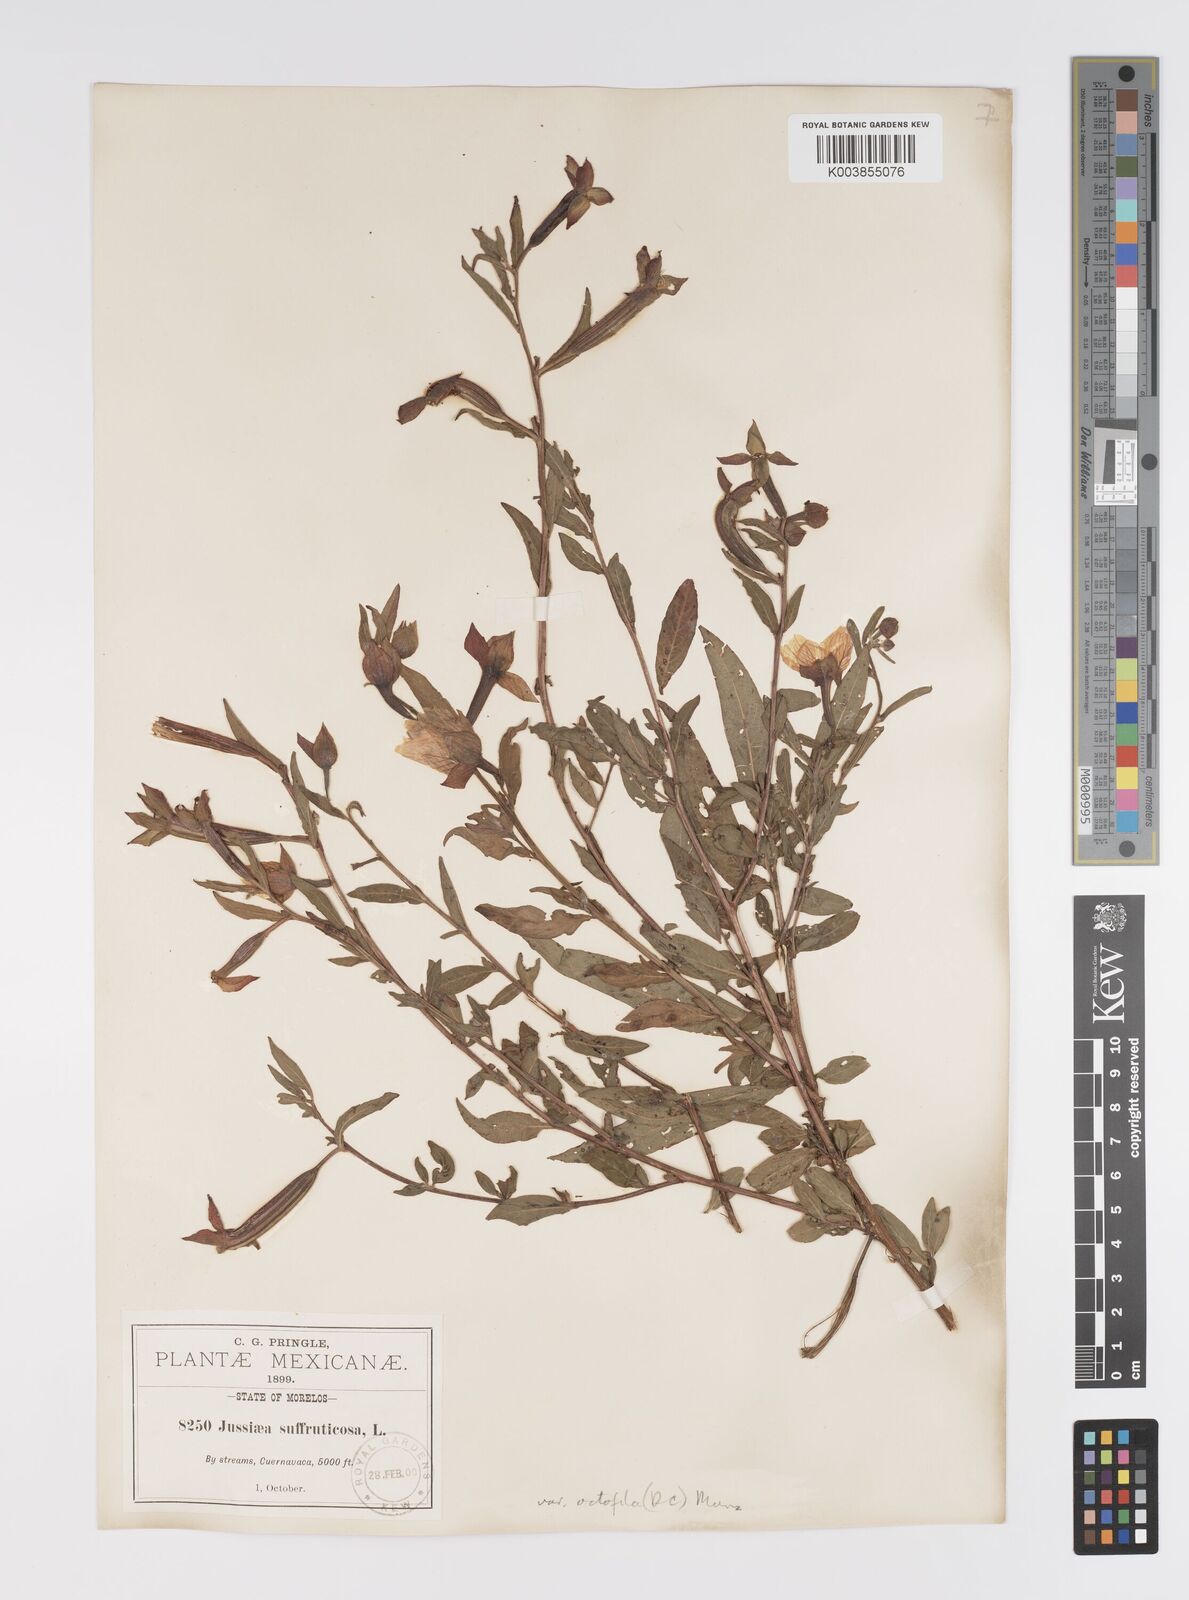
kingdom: Plantae
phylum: Tracheophyta
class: Magnoliopsida
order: Myrtales
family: Onagraceae
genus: Ludwigia
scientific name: Ludwigia octovalvis
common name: Water-primrose
